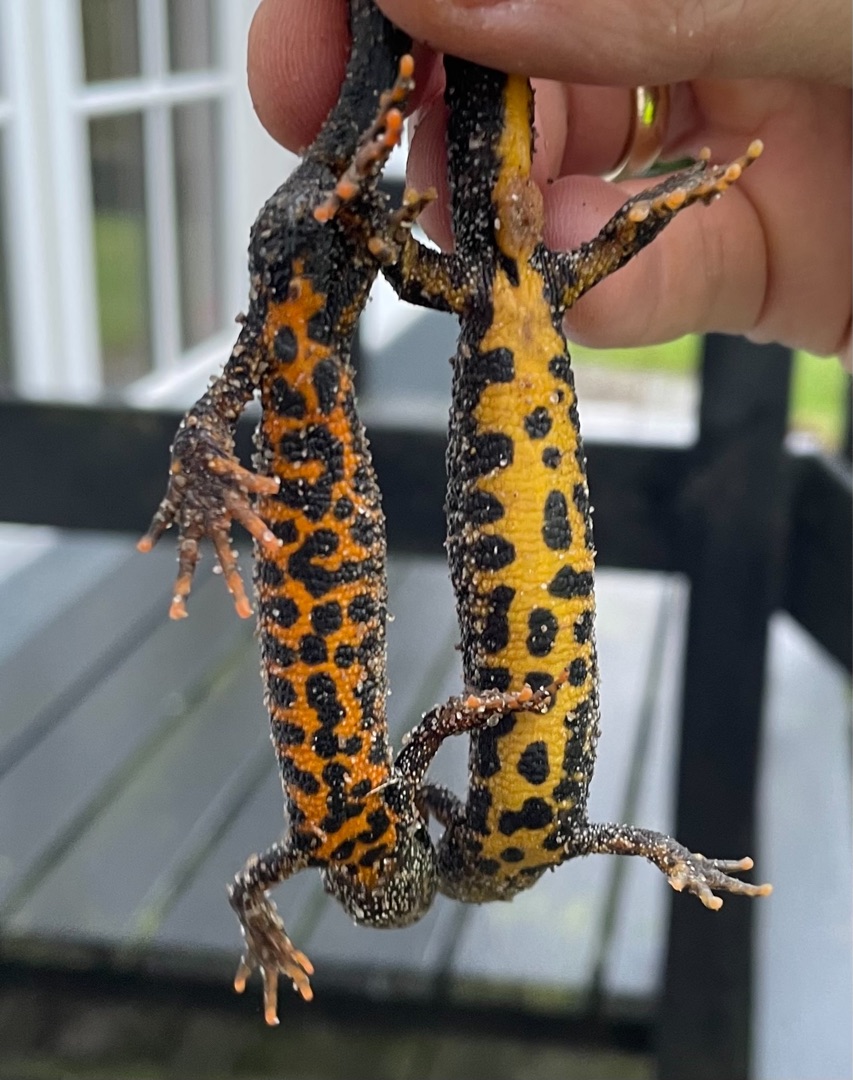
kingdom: Animalia
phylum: Chordata
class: Amphibia
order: Caudata
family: Salamandridae
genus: Triturus
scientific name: Triturus cristatus
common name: Stor vandsalamander
